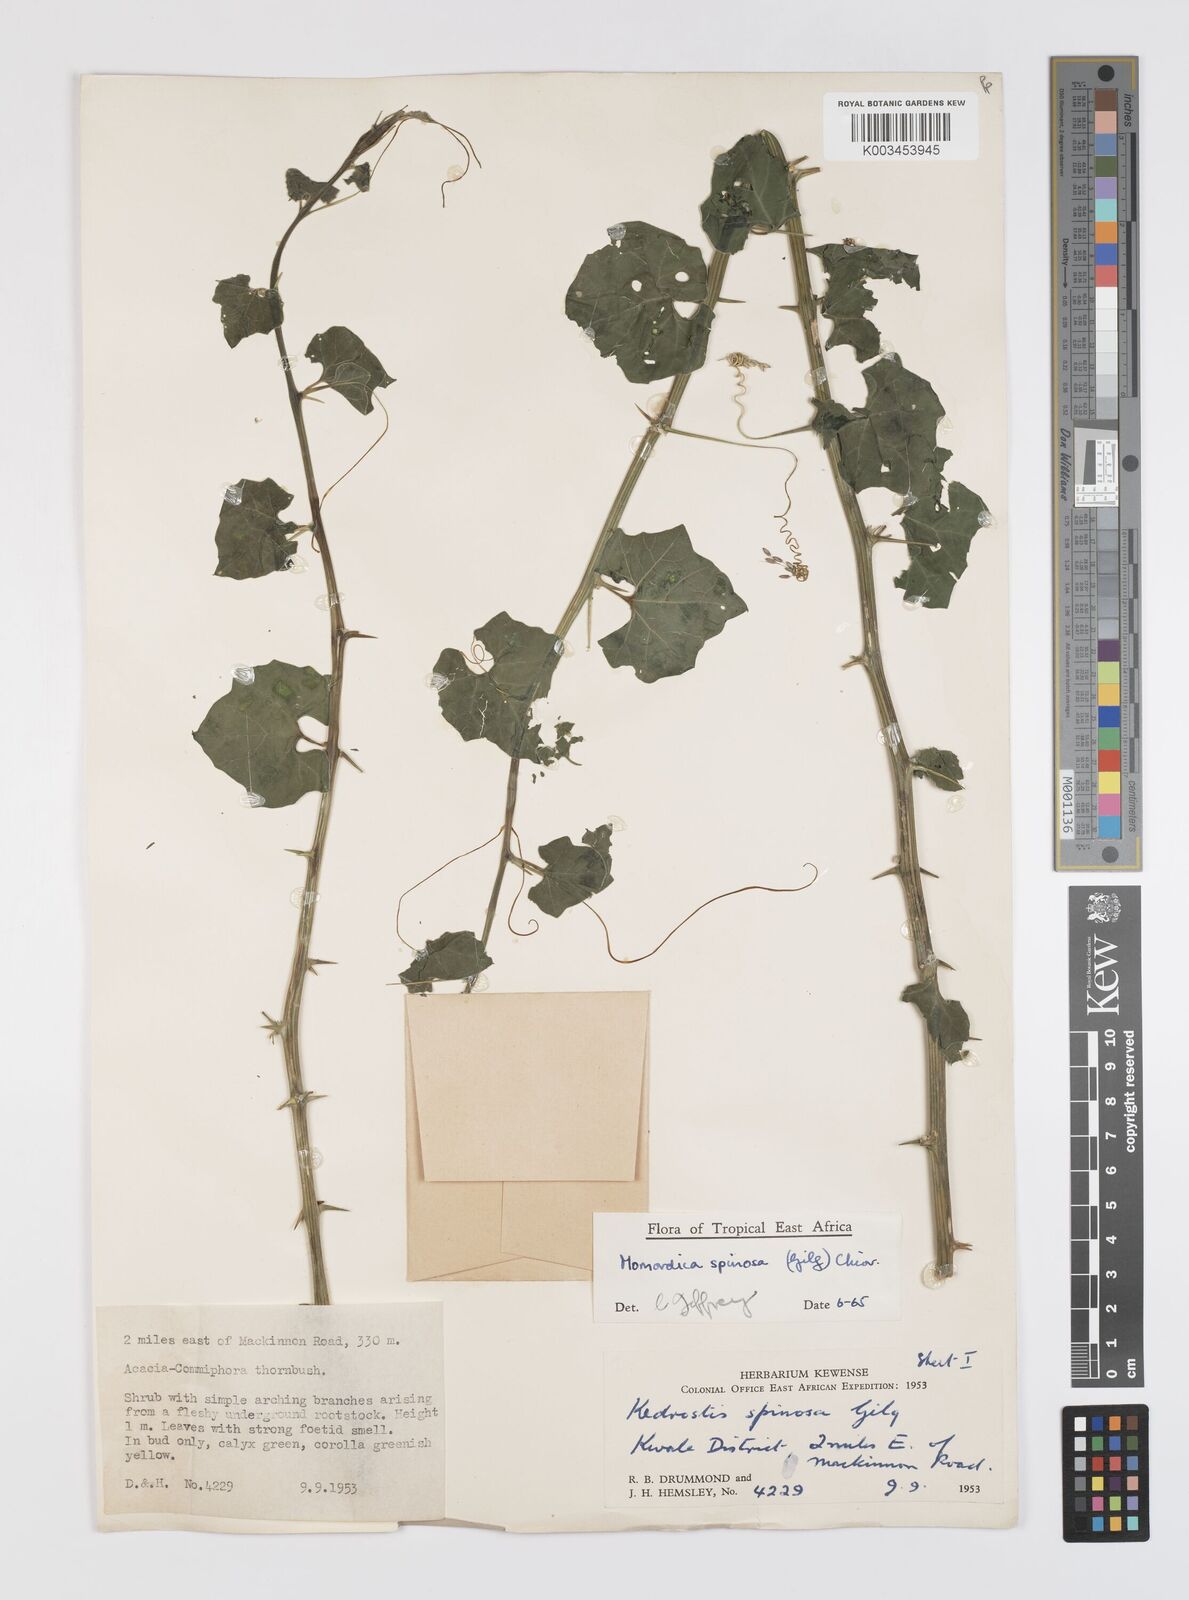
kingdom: Plantae
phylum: Tracheophyta
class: Magnoliopsida
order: Cucurbitales
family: Cucurbitaceae
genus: Momordica
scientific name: Momordica spinosa
